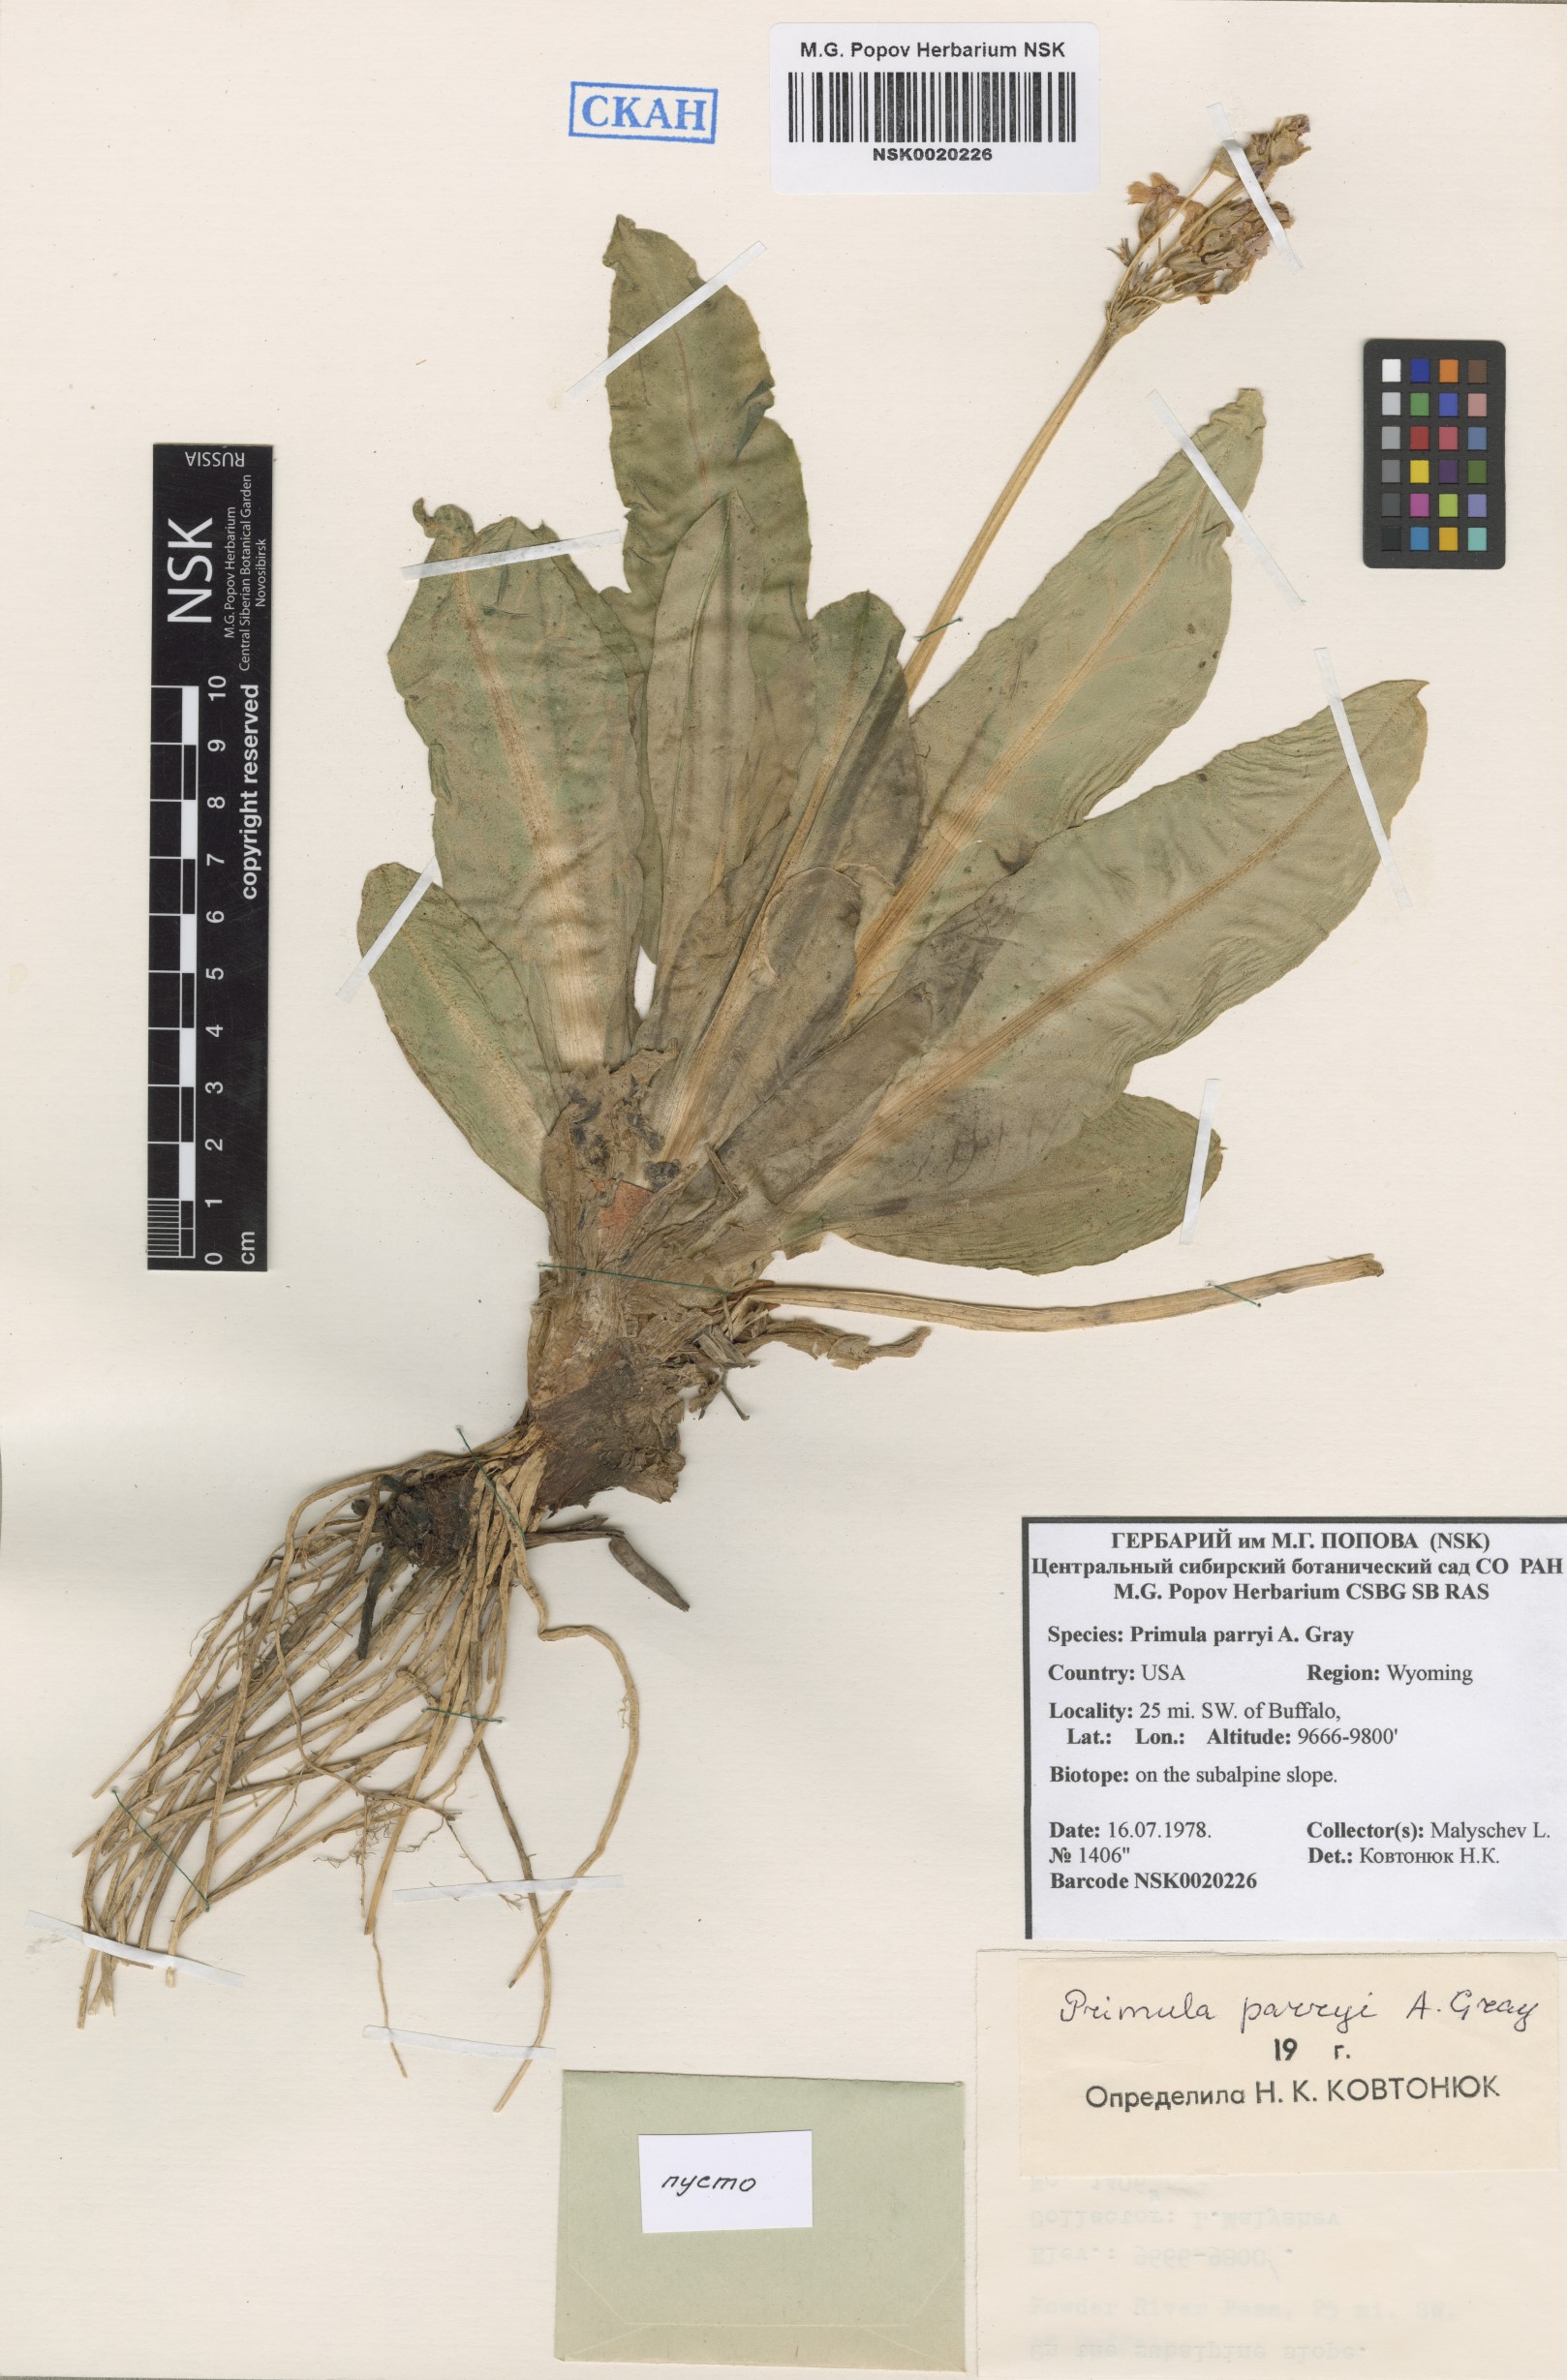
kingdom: Plantae
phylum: Tracheophyta
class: Magnoliopsida
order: Ericales
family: Primulaceae
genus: Primula
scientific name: Primula parryi
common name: Parry's primrose
